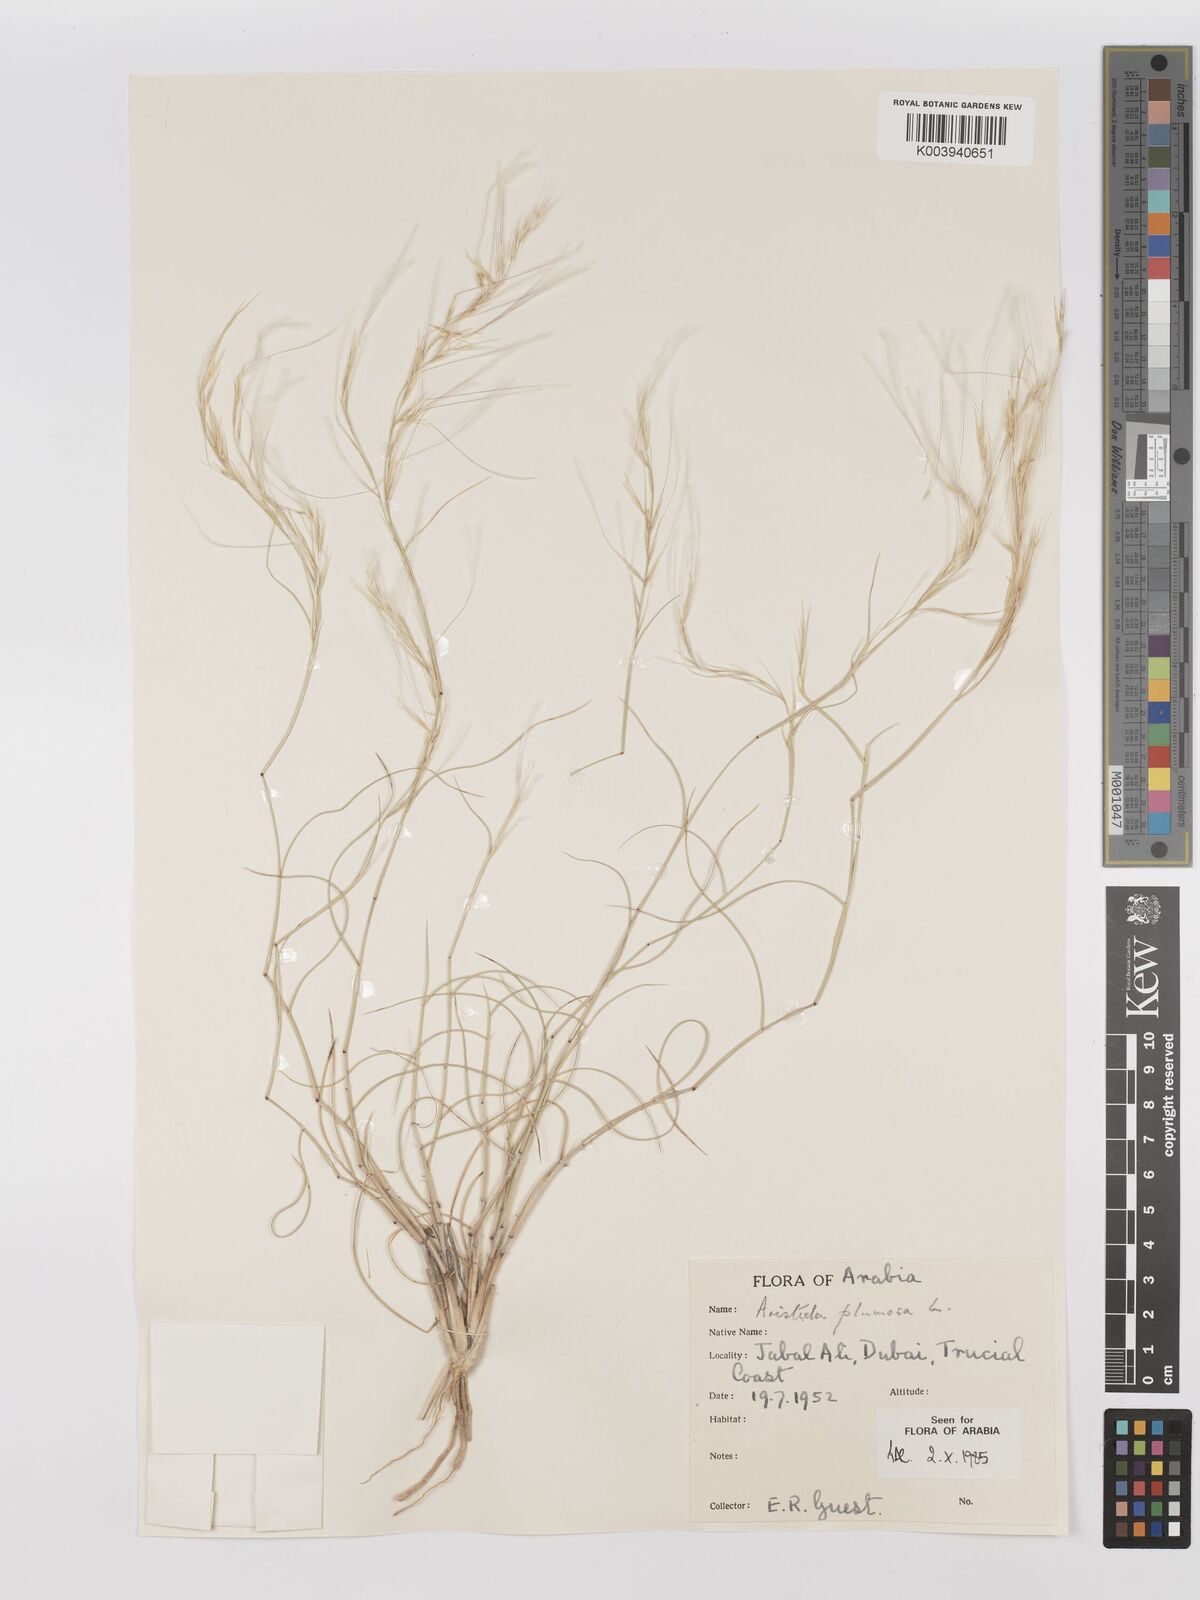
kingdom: Plantae
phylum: Tracheophyta
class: Liliopsida
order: Poales
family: Poaceae
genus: Stipagrostis
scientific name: Stipagrostis plumosa
